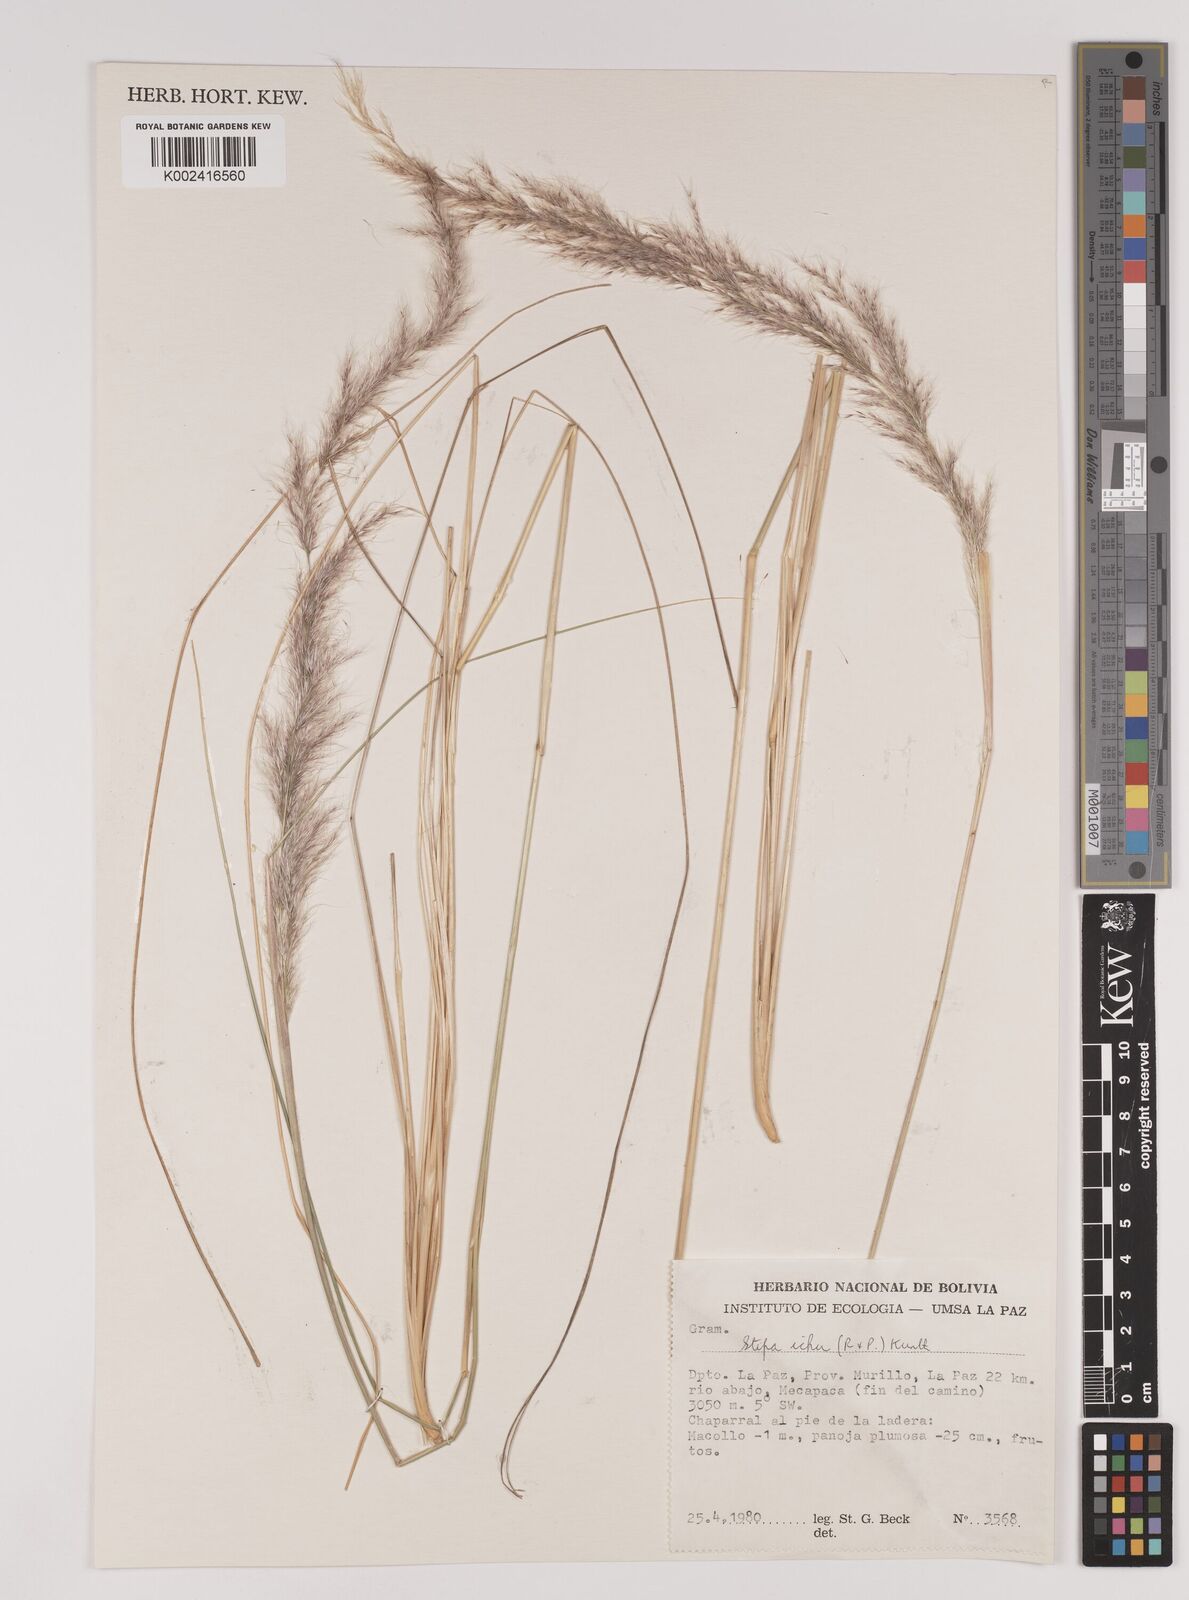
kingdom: Plantae
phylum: Tracheophyta
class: Liliopsida
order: Poales
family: Poaceae
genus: Jarava
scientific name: Jarava pseudoichu
